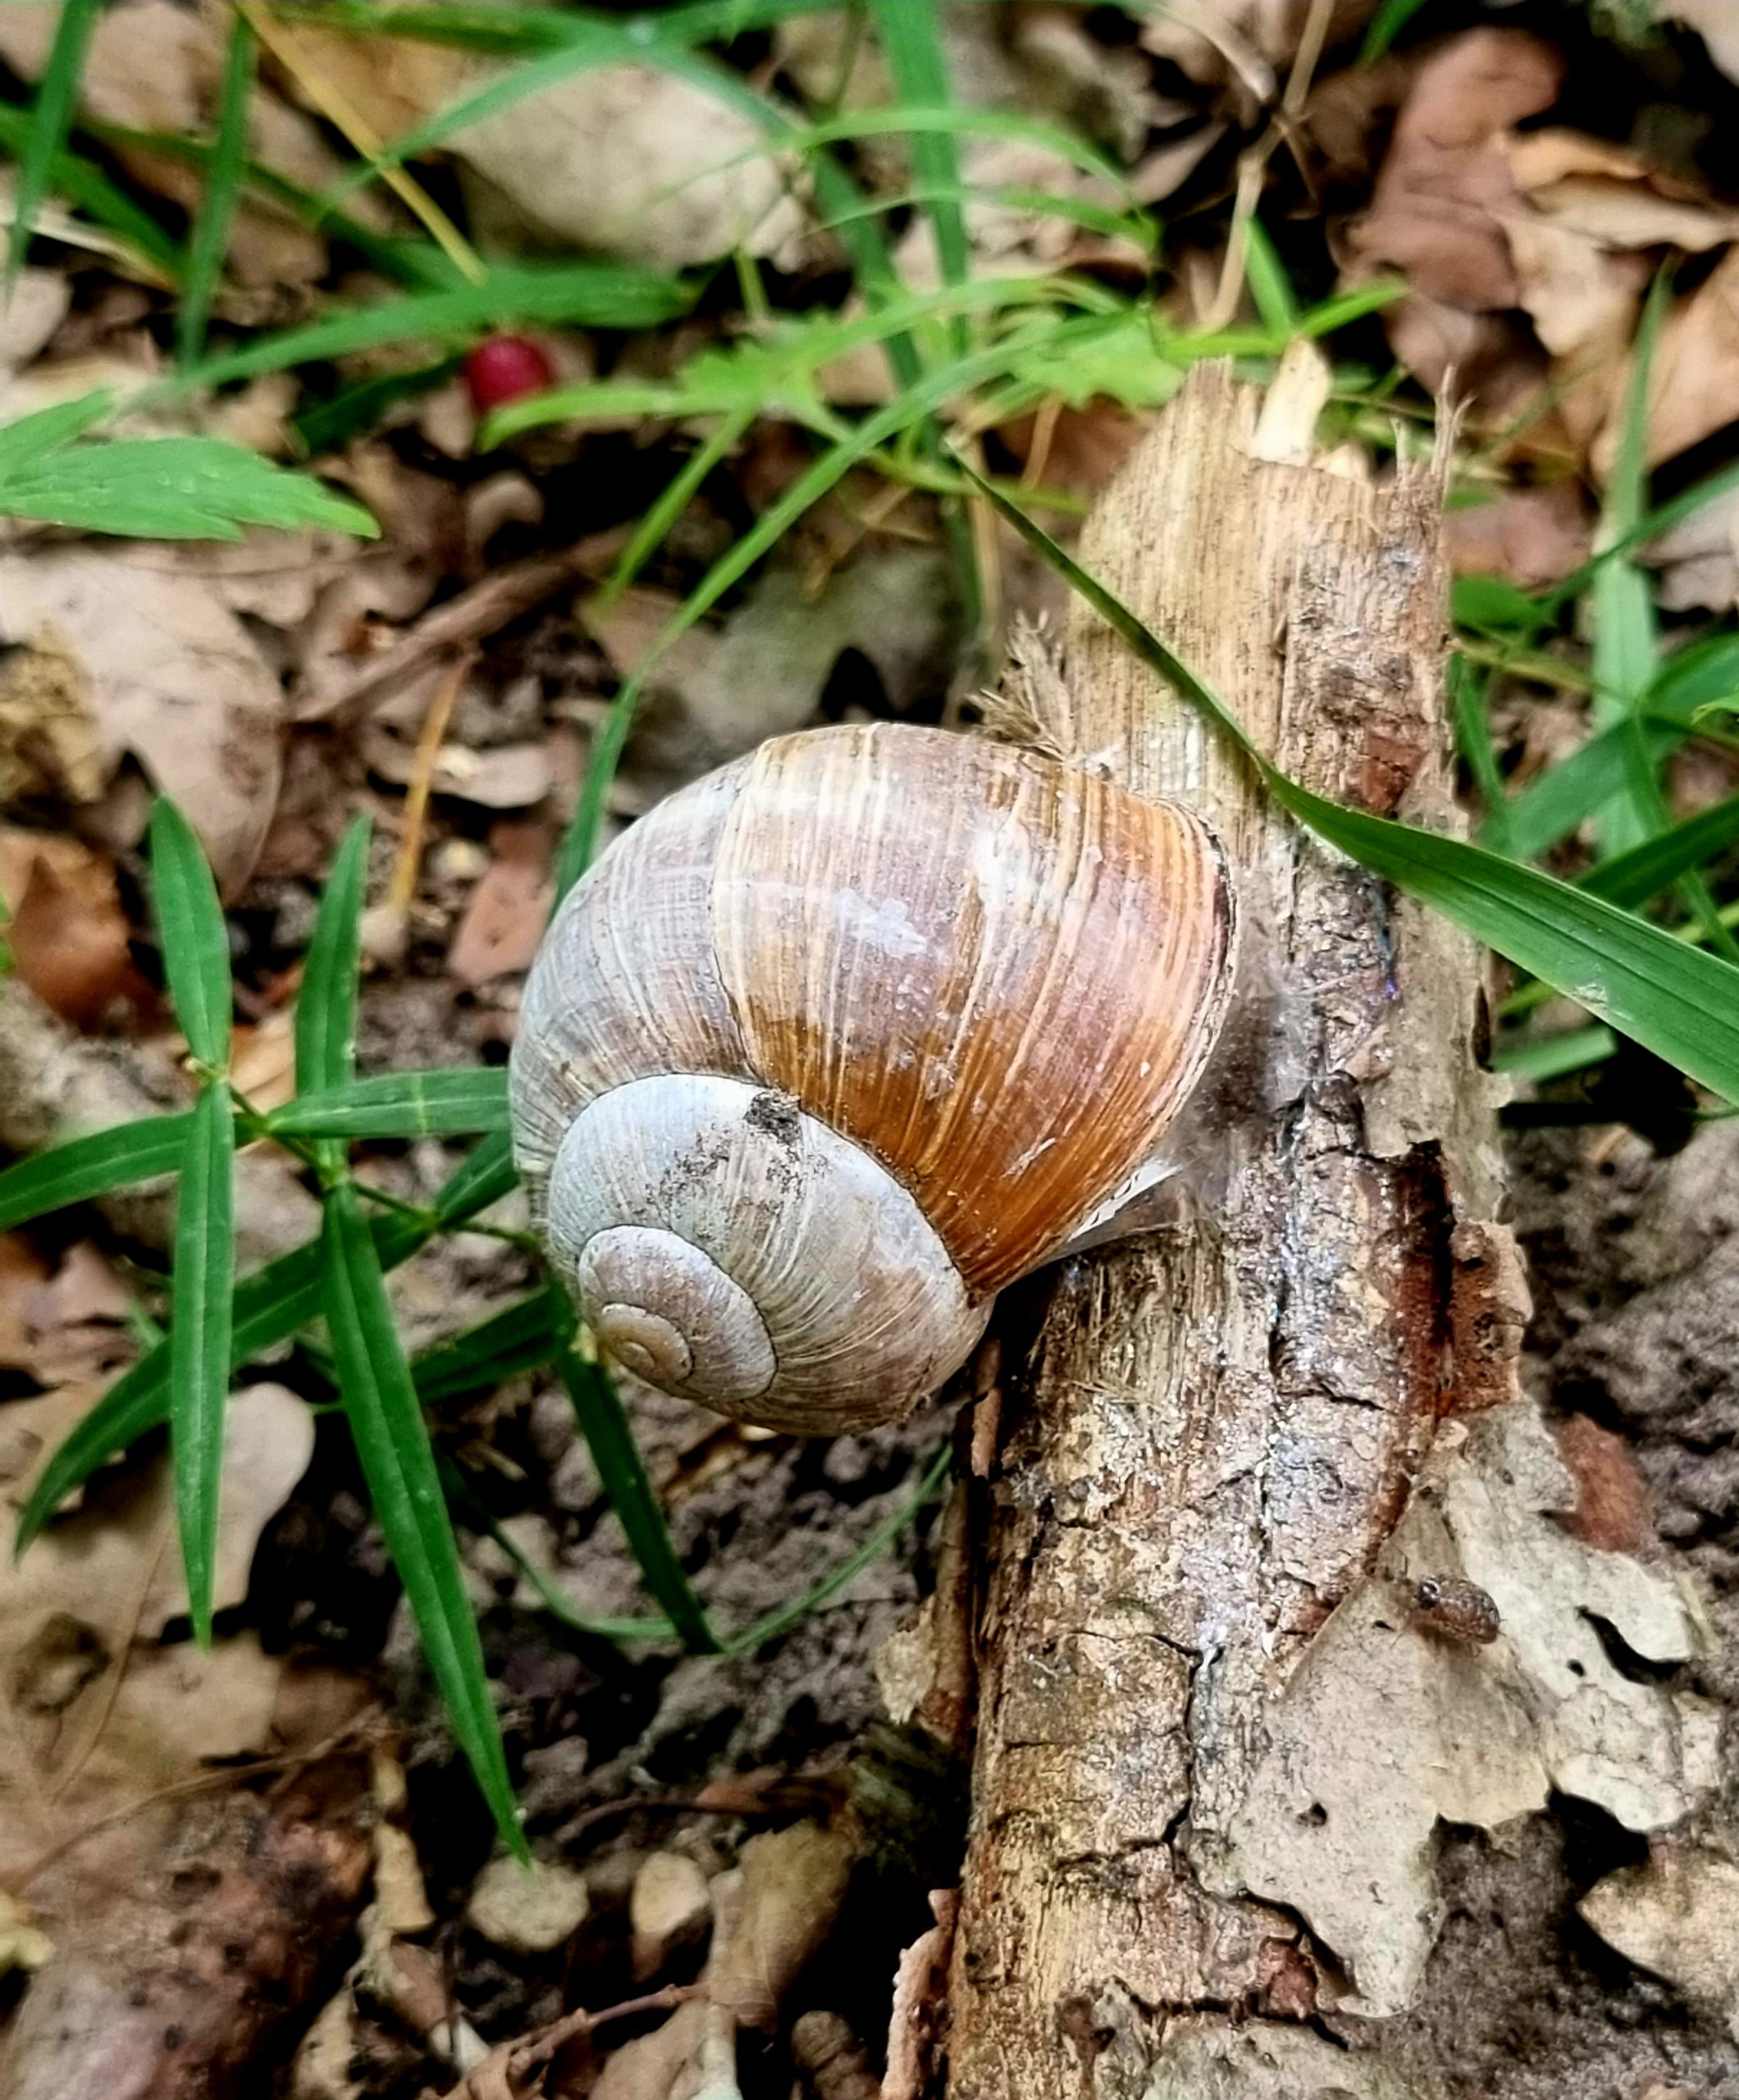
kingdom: Animalia
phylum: Mollusca
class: Gastropoda
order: Stylommatophora
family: Helicidae
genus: Helix
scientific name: Helix pomatia
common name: Vinbjergsnegl
